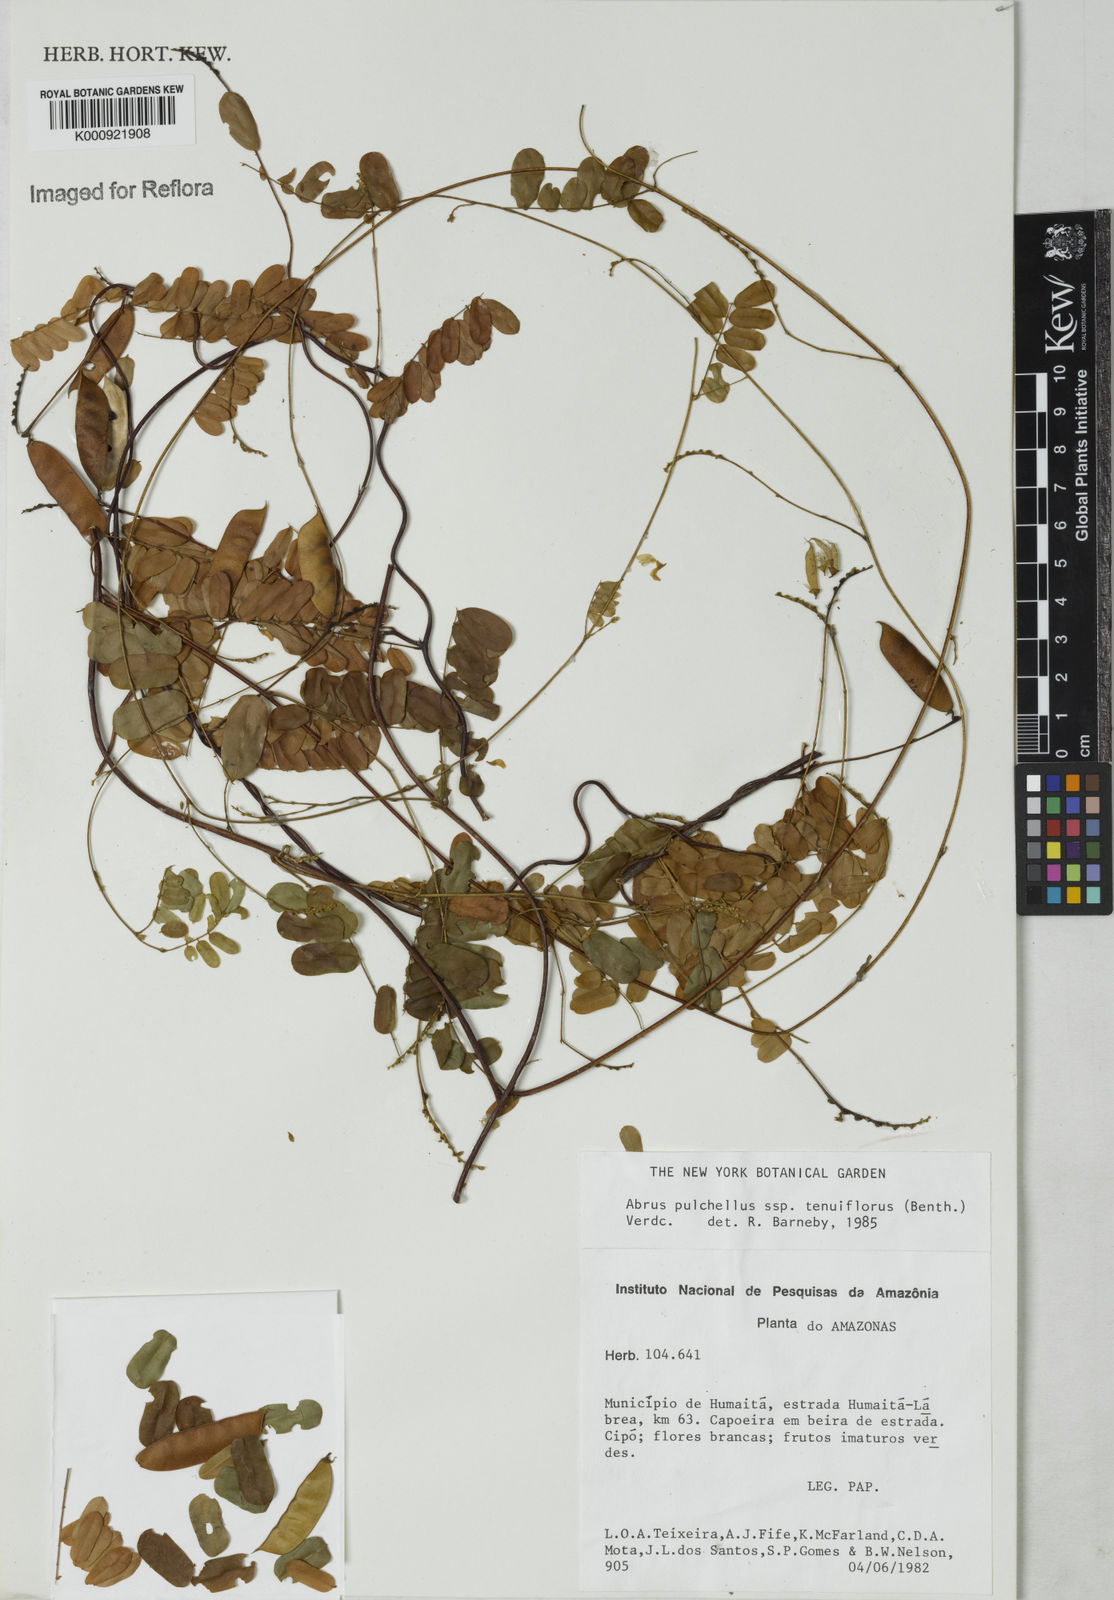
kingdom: Plantae
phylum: Tracheophyta
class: Magnoliopsida
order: Fabales
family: Fabaceae
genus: Abrus
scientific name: Abrus melanospermus
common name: Licorice-root
